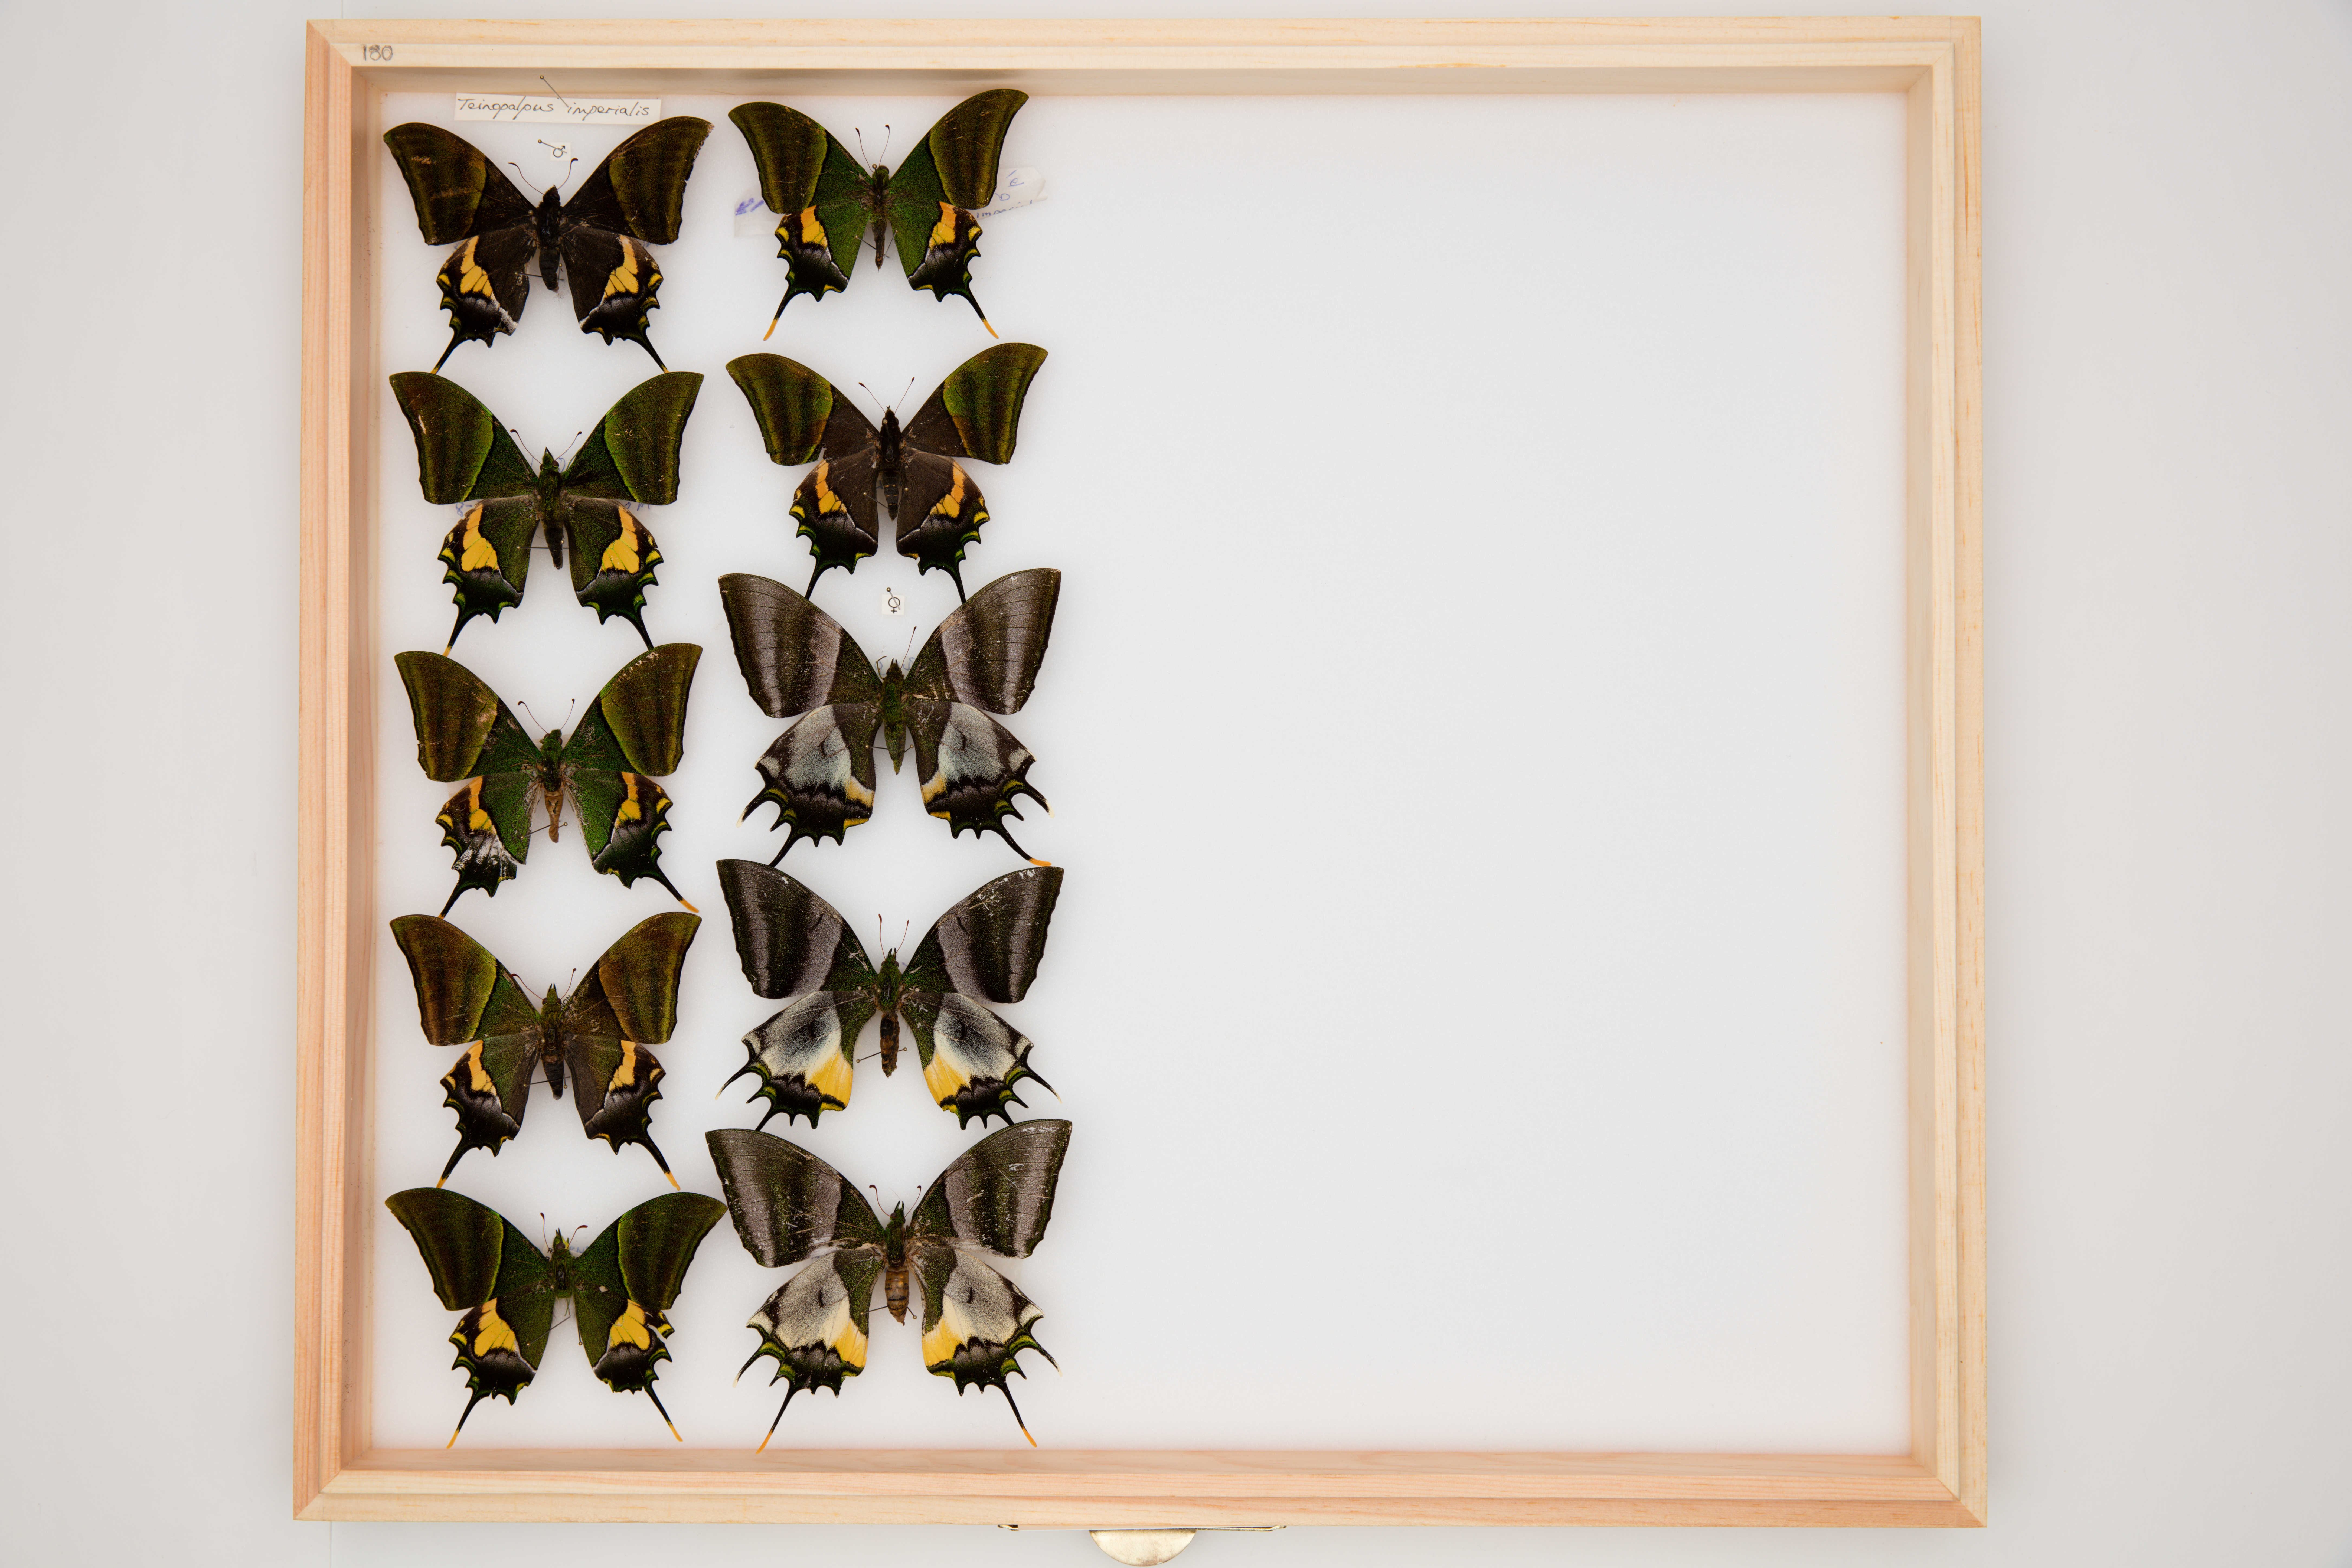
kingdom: Animalia
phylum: Arthropoda
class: Insecta
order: Lepidoptera
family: Papilionidae
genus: Teinopalpus
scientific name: Teinopalpus imperialis
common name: Kaiser-i-hind
